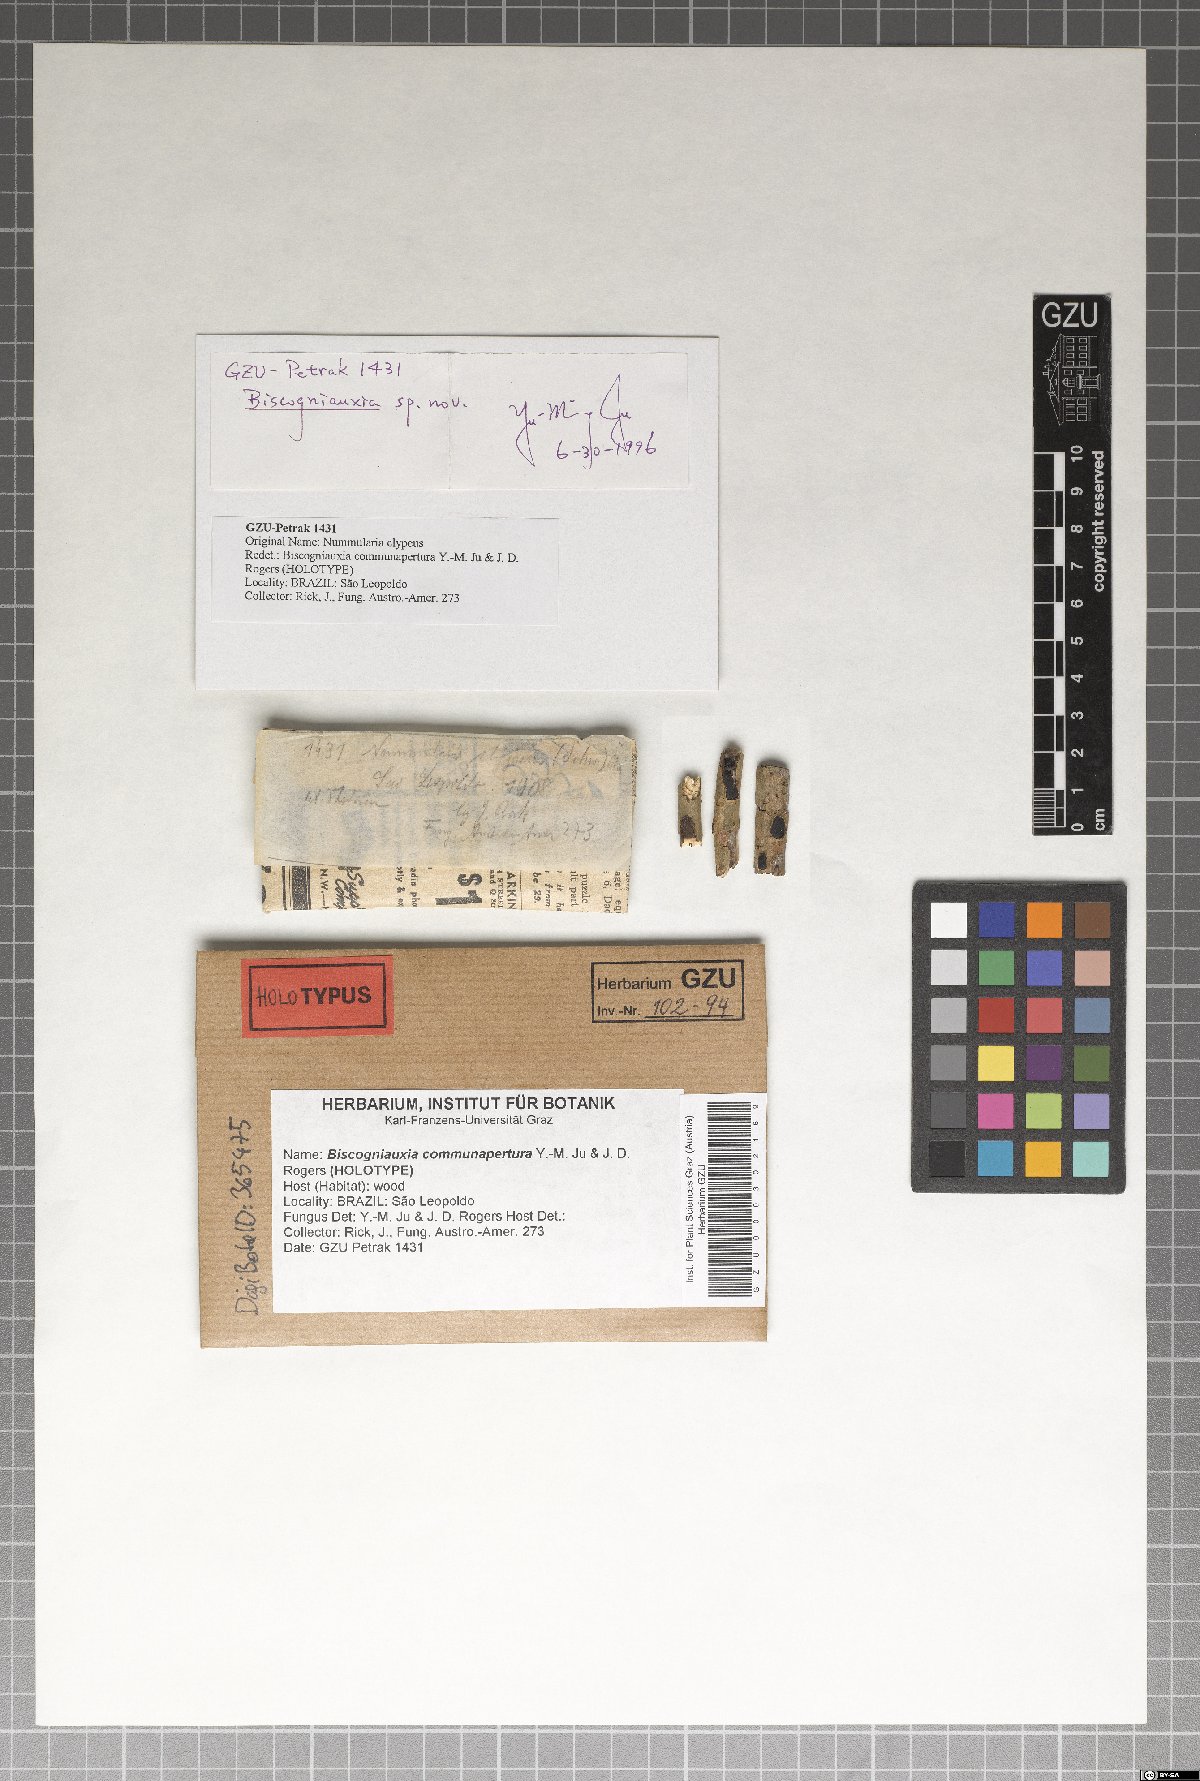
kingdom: Fungi
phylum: Ascomycota
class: Sordariomycetes
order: Xylariales
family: Graphostromataceae
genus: Biscogniauxia
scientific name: Biscogniauxia communapertura
